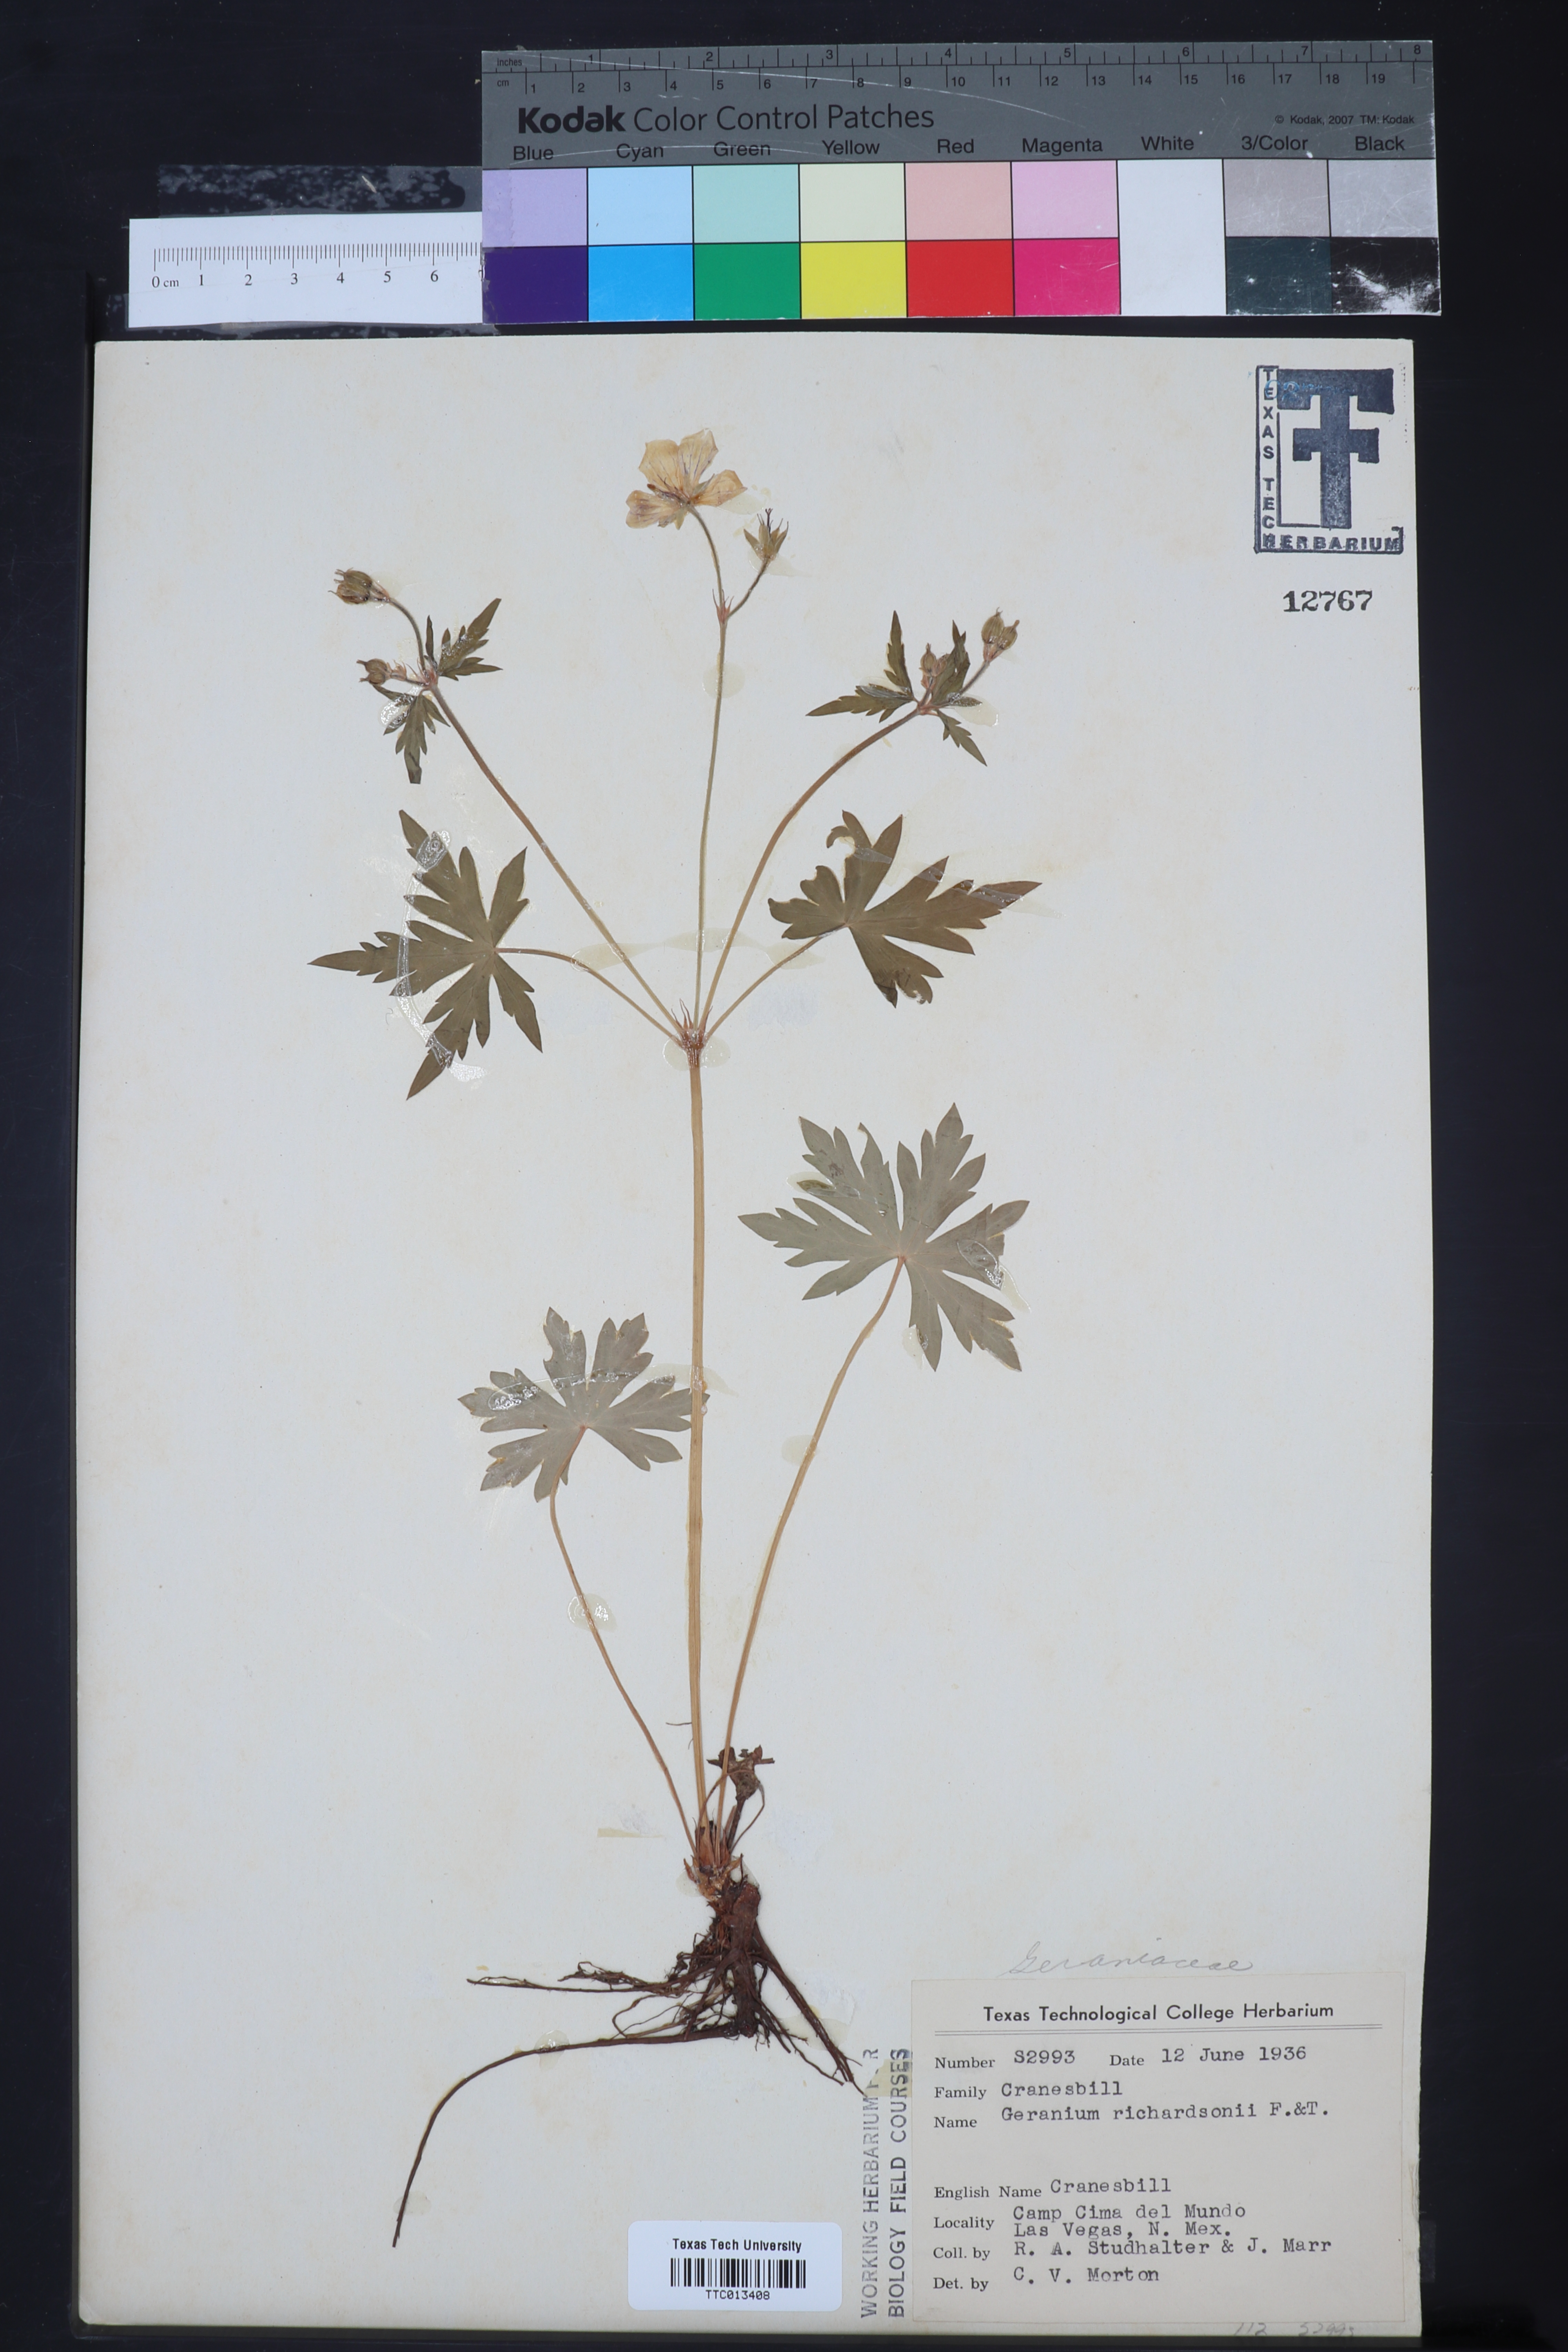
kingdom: Plantae
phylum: Tracheophyta
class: Magnoliopsida
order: Geraniales
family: Geraniaceae
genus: Geranium
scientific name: Geranium richardsonii
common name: Richardson's crane's-bill
